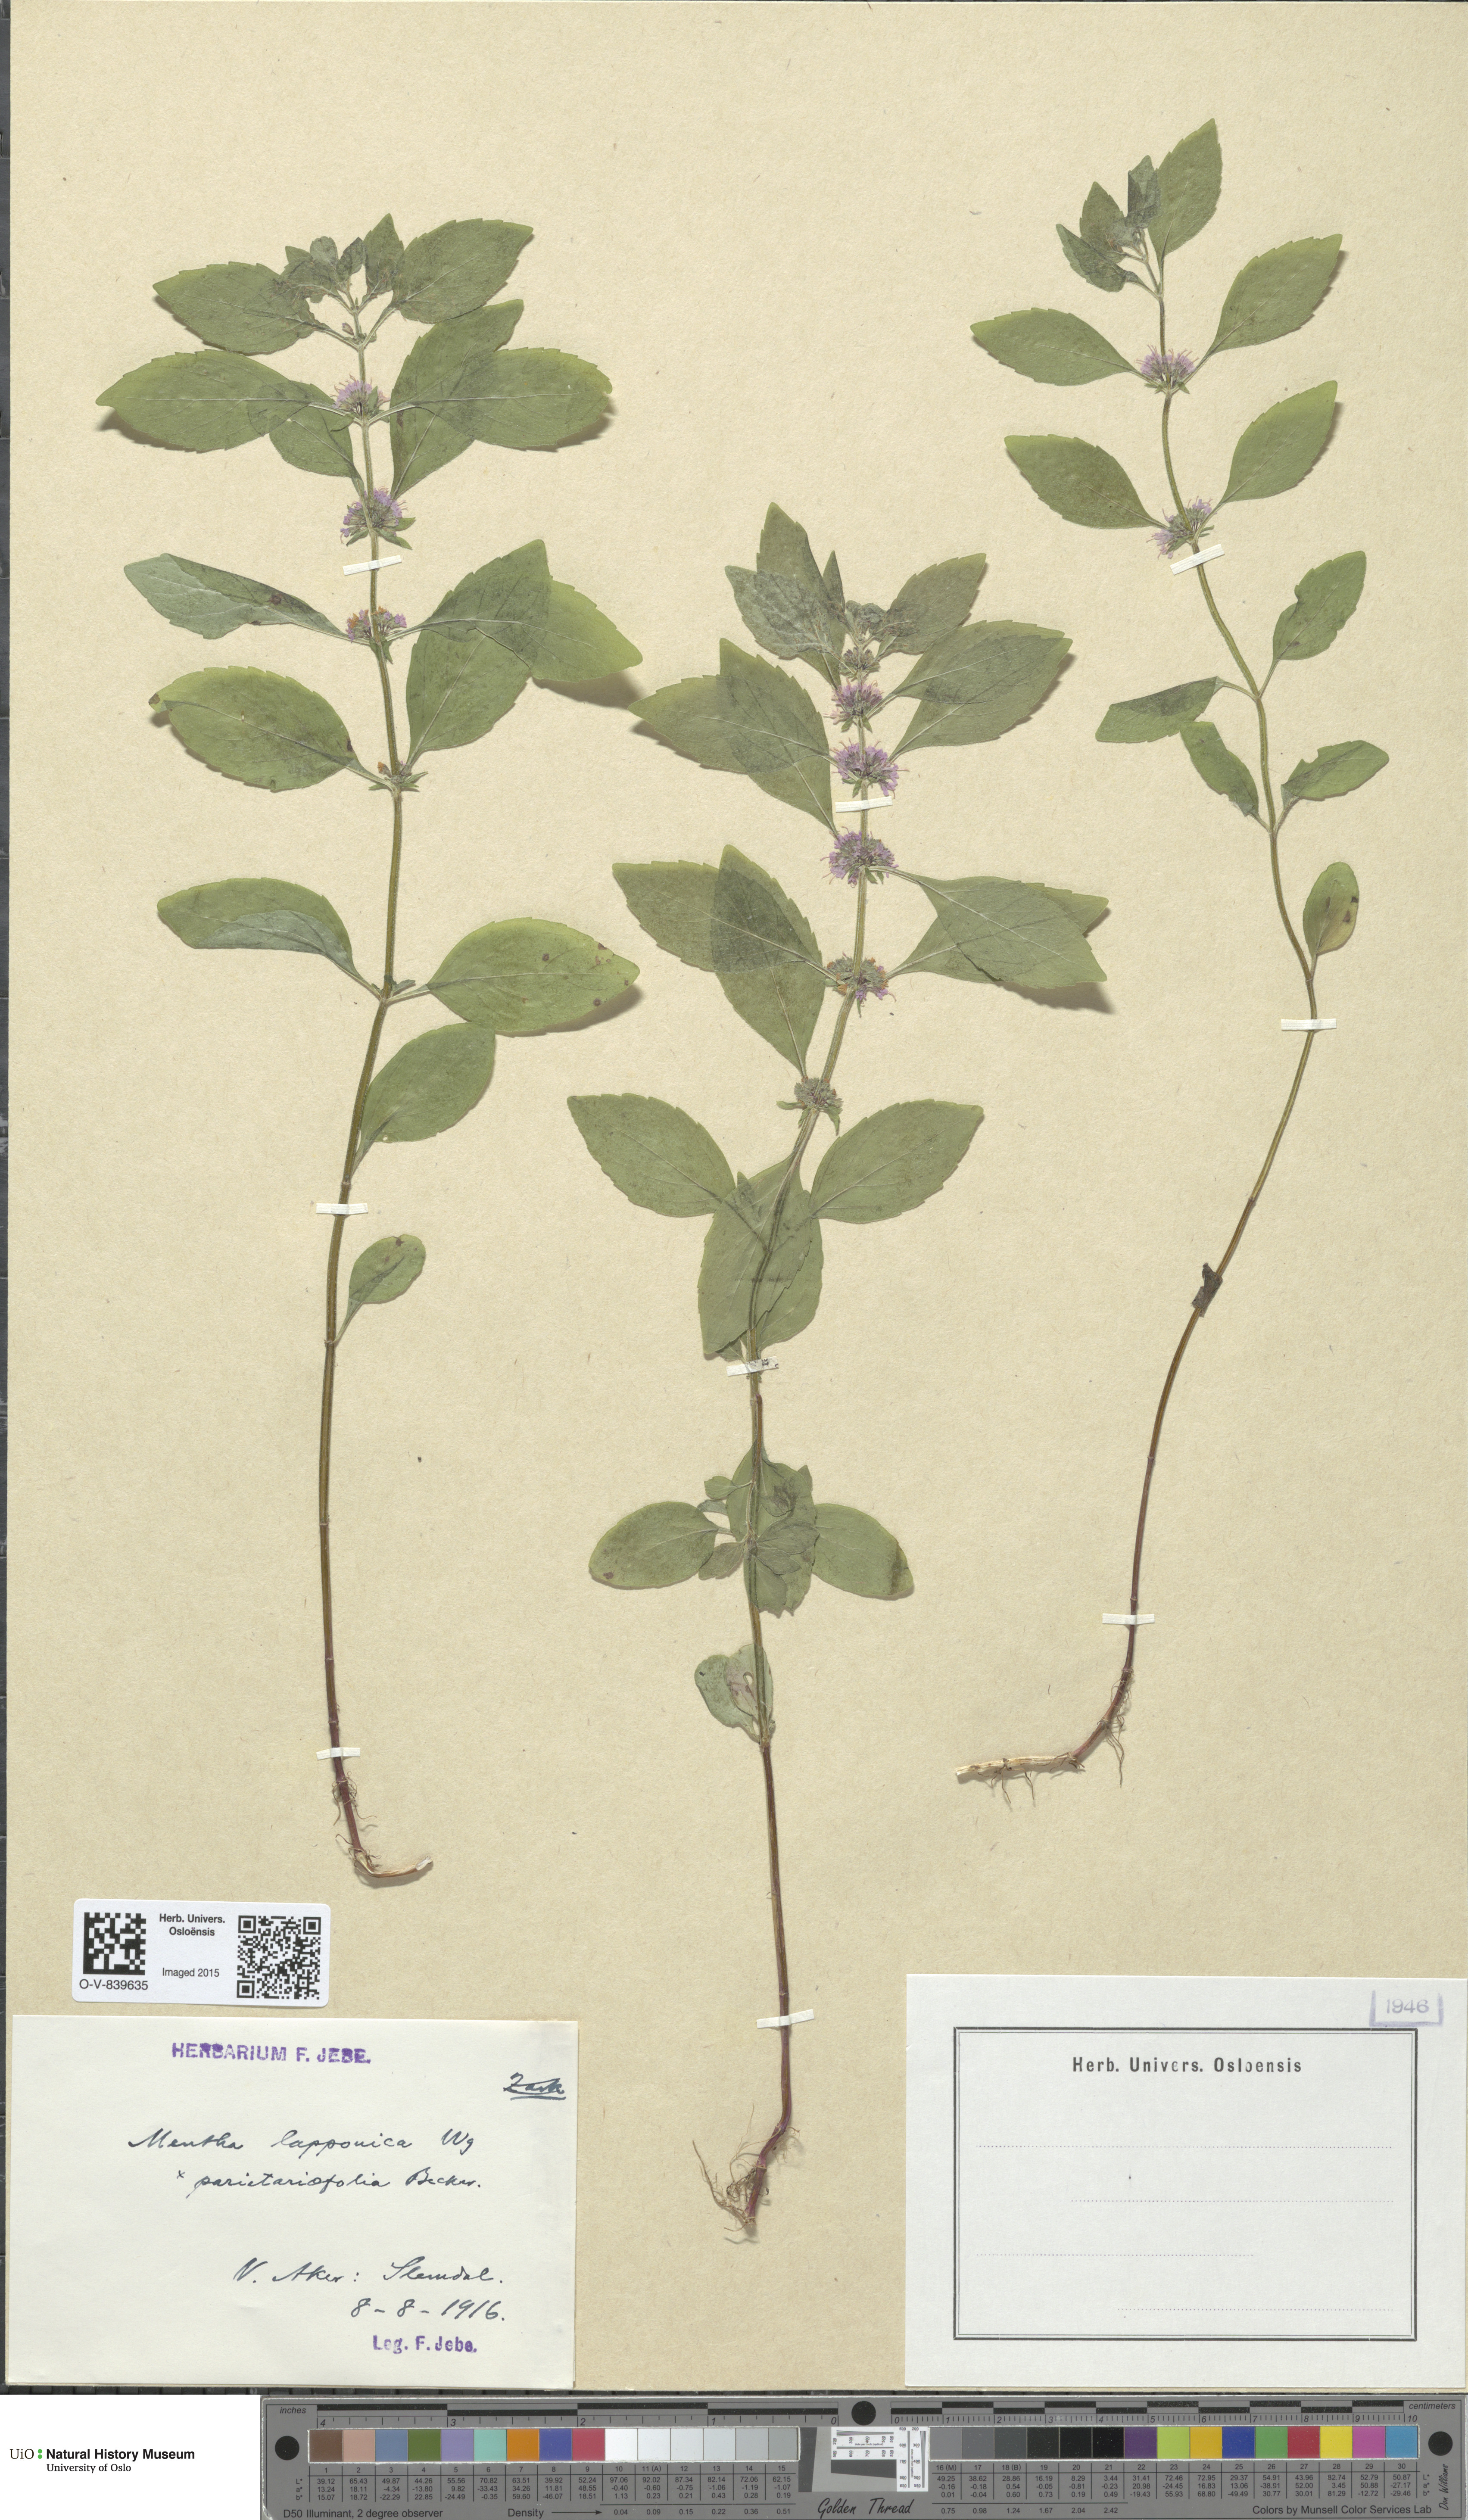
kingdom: Plantae
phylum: Tracheophyta
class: Magnoliopsida
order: Lamiales
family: Lamiaceae
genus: Mentha
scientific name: Mentha arvensis
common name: Corn mint
